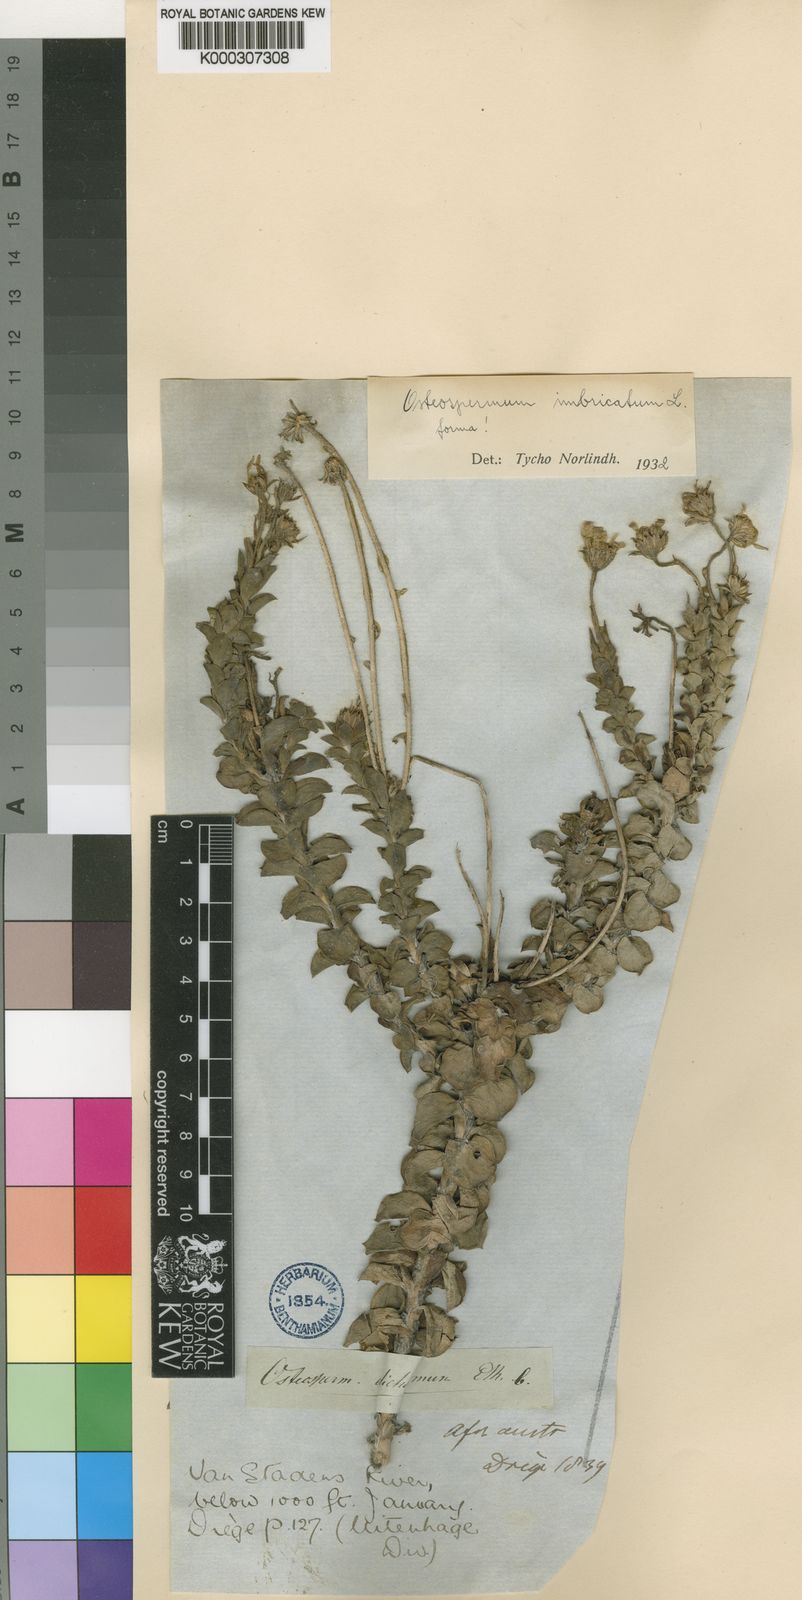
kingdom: Plantae
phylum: Tracheophyta
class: Magnoliopsida
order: Asterales
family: Asteraceae
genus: Osteospermum
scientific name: Osteospermum imbricatum
